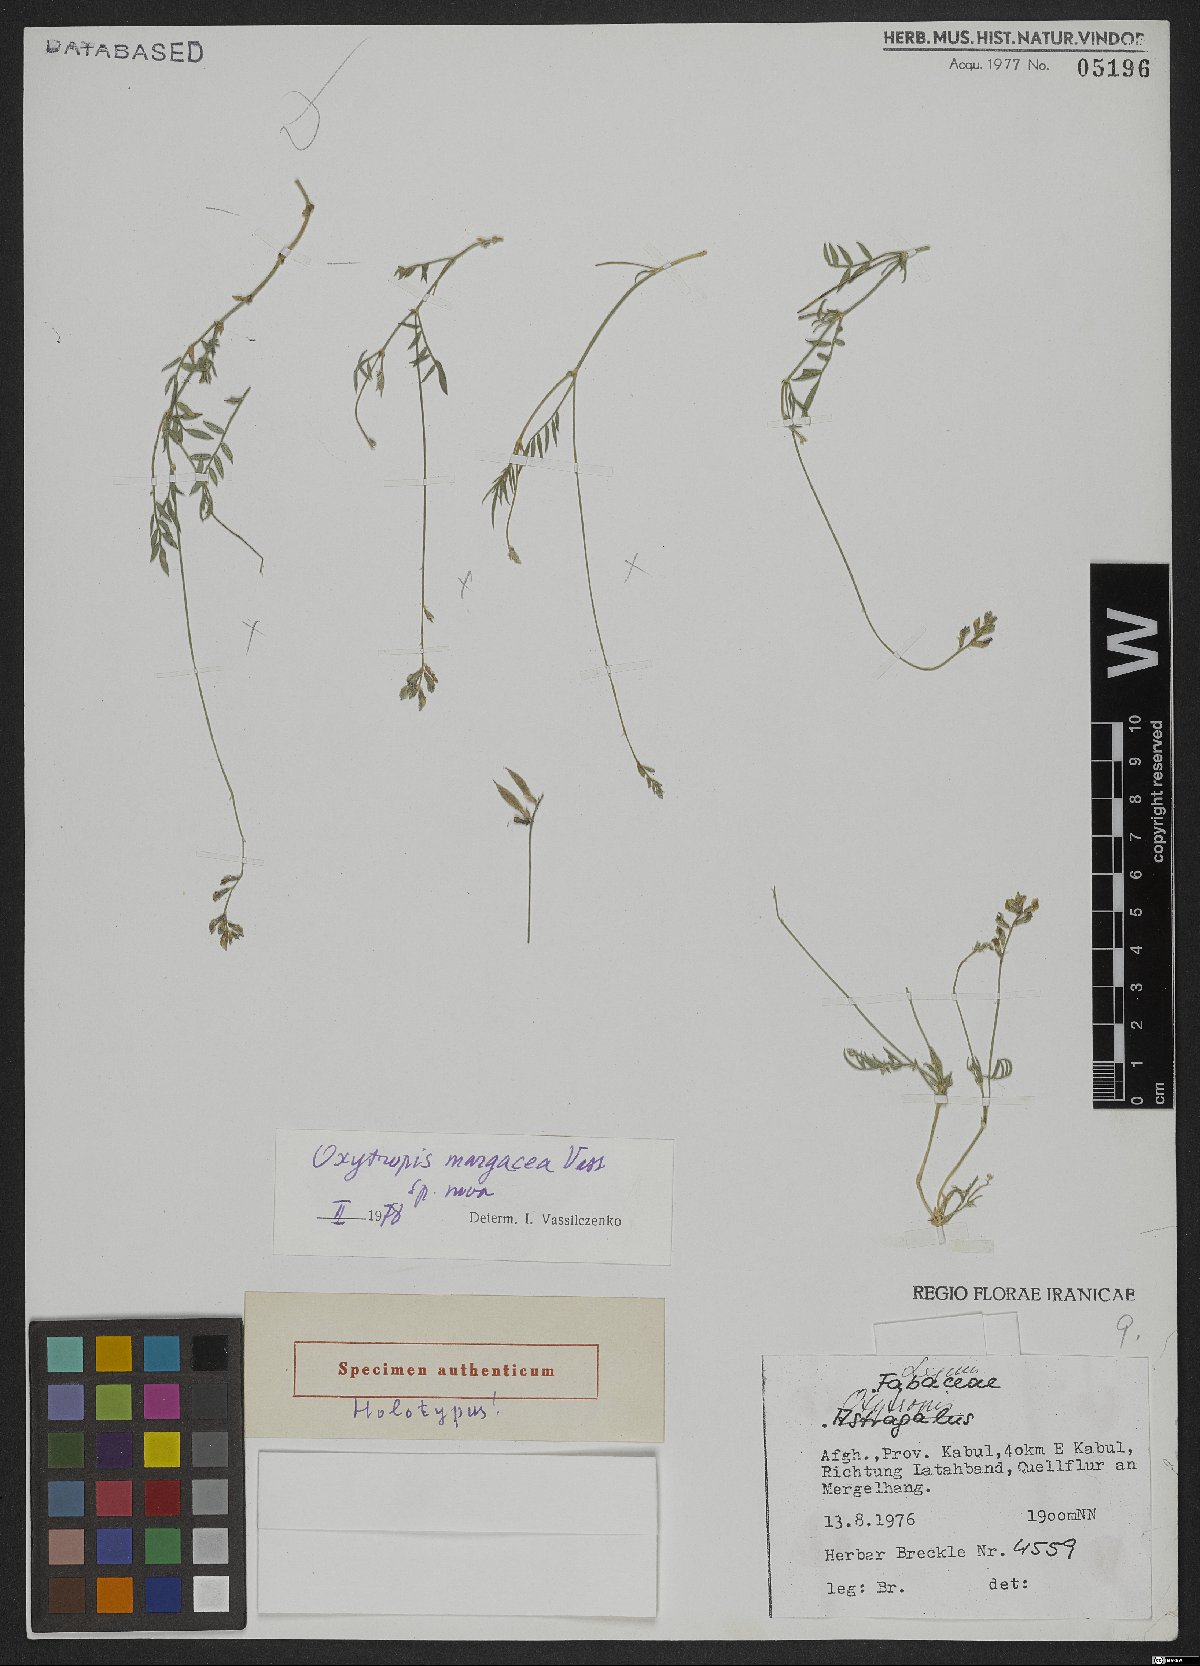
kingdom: Plantae
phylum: Tracheophyta
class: Magnoliopsida
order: Fabales
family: Fabaceae
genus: Oxytropis
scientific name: Oxytropis margacea
